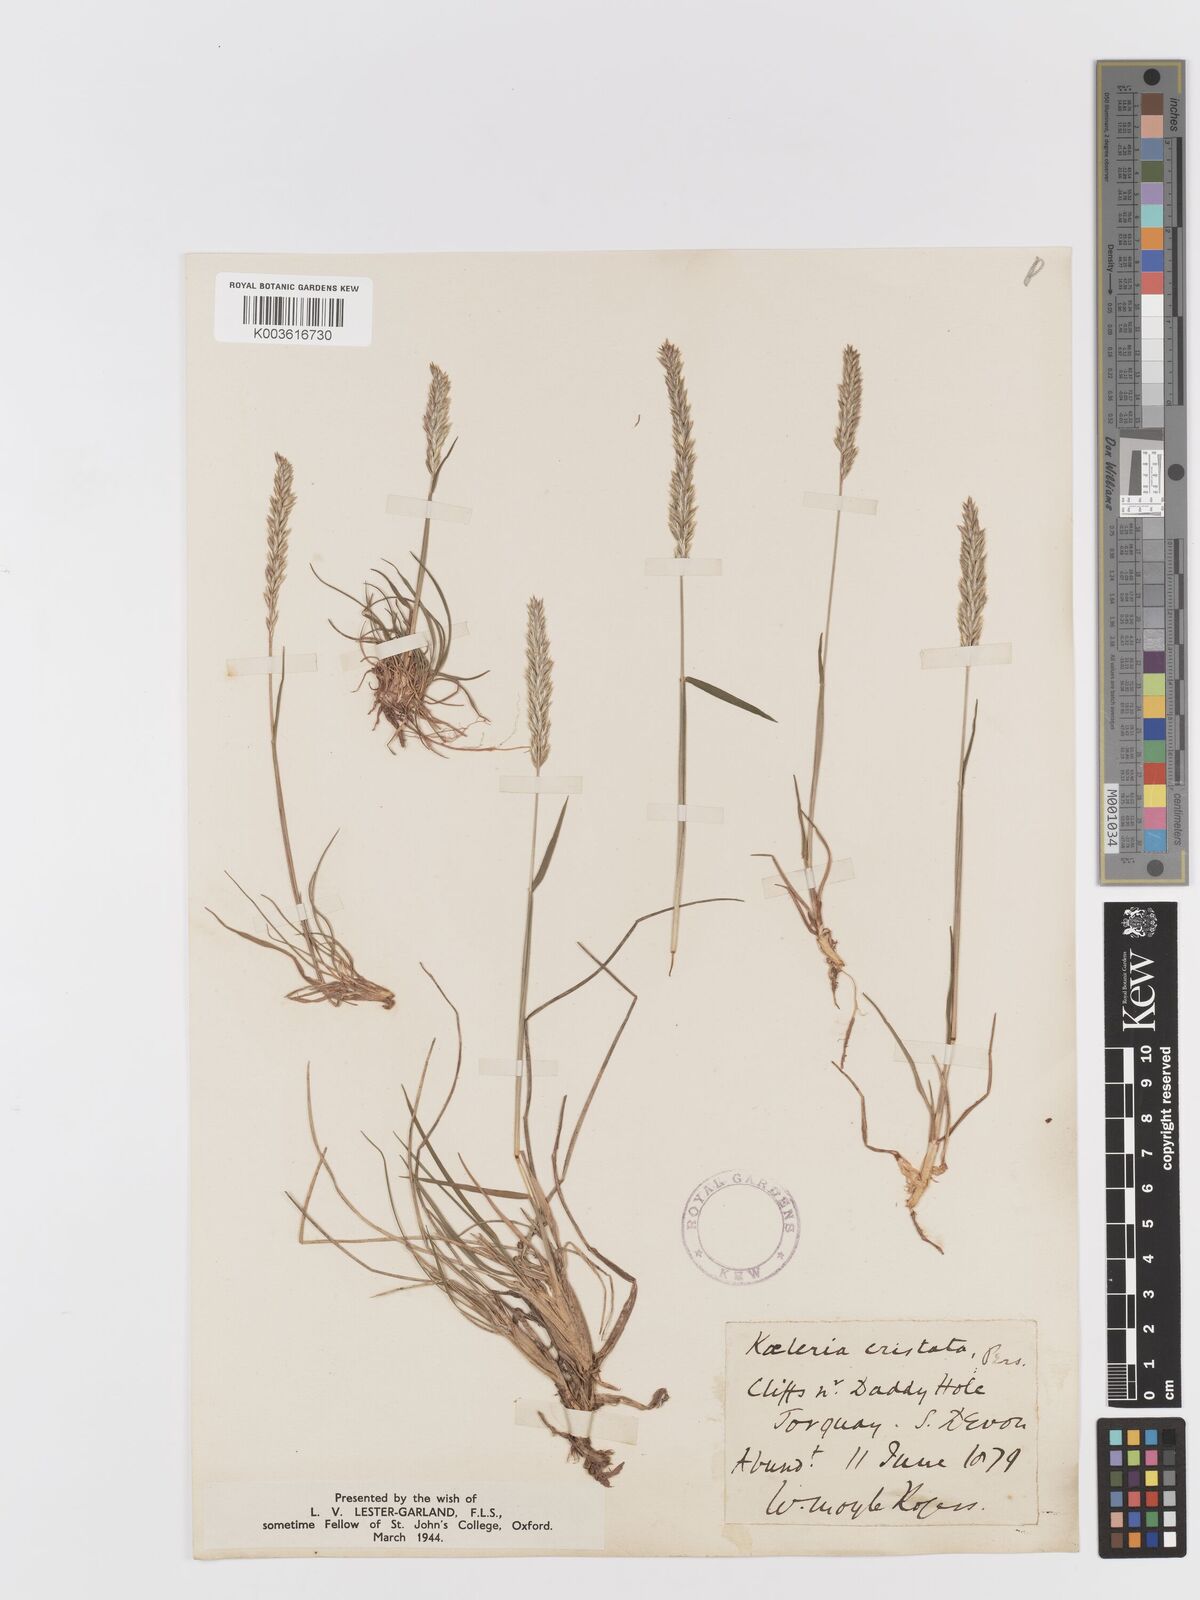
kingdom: Plantae
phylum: Tracheophyta
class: Liliopsida
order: Poales
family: Poaceae
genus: Koeleria
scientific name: Koeleria macrantha
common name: Crested hair-grass
